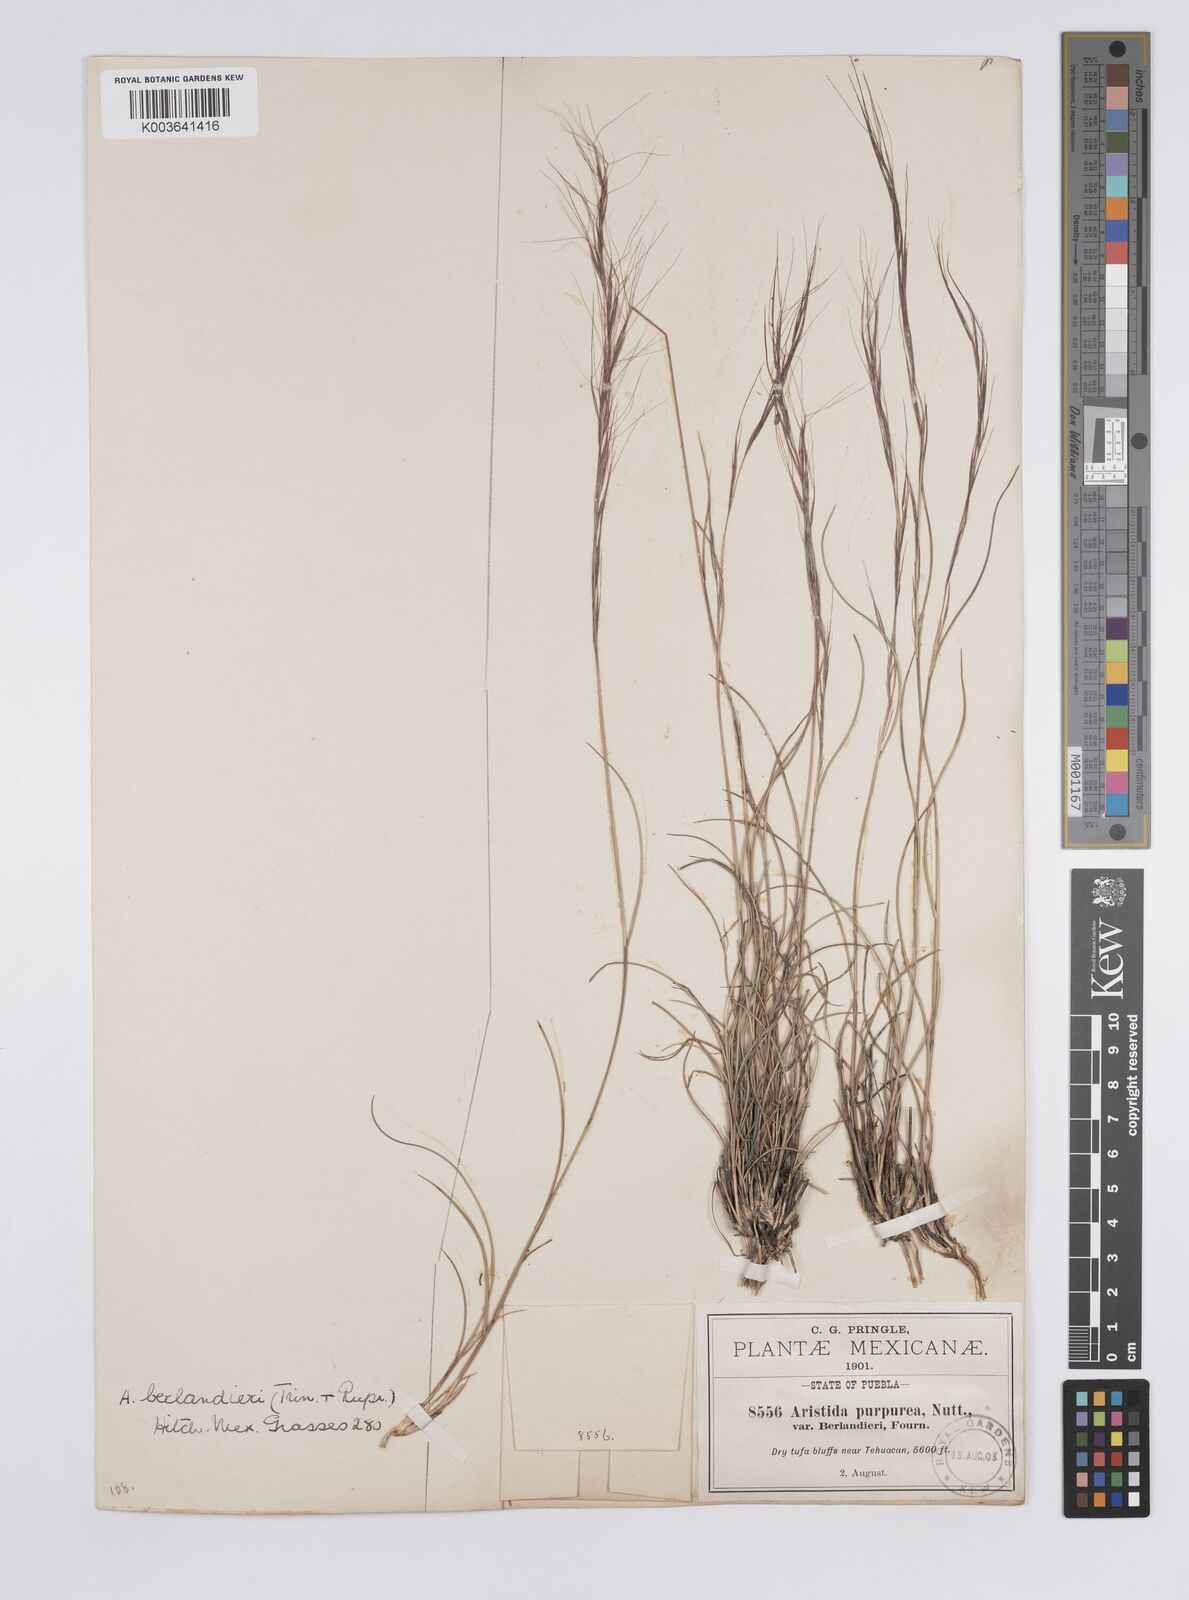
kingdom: Plantae
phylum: Tracheophyta
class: Liliopsida
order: Poales
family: Poaceae
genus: Aristida
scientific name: Aristida purpurea
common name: Purple threeawn
